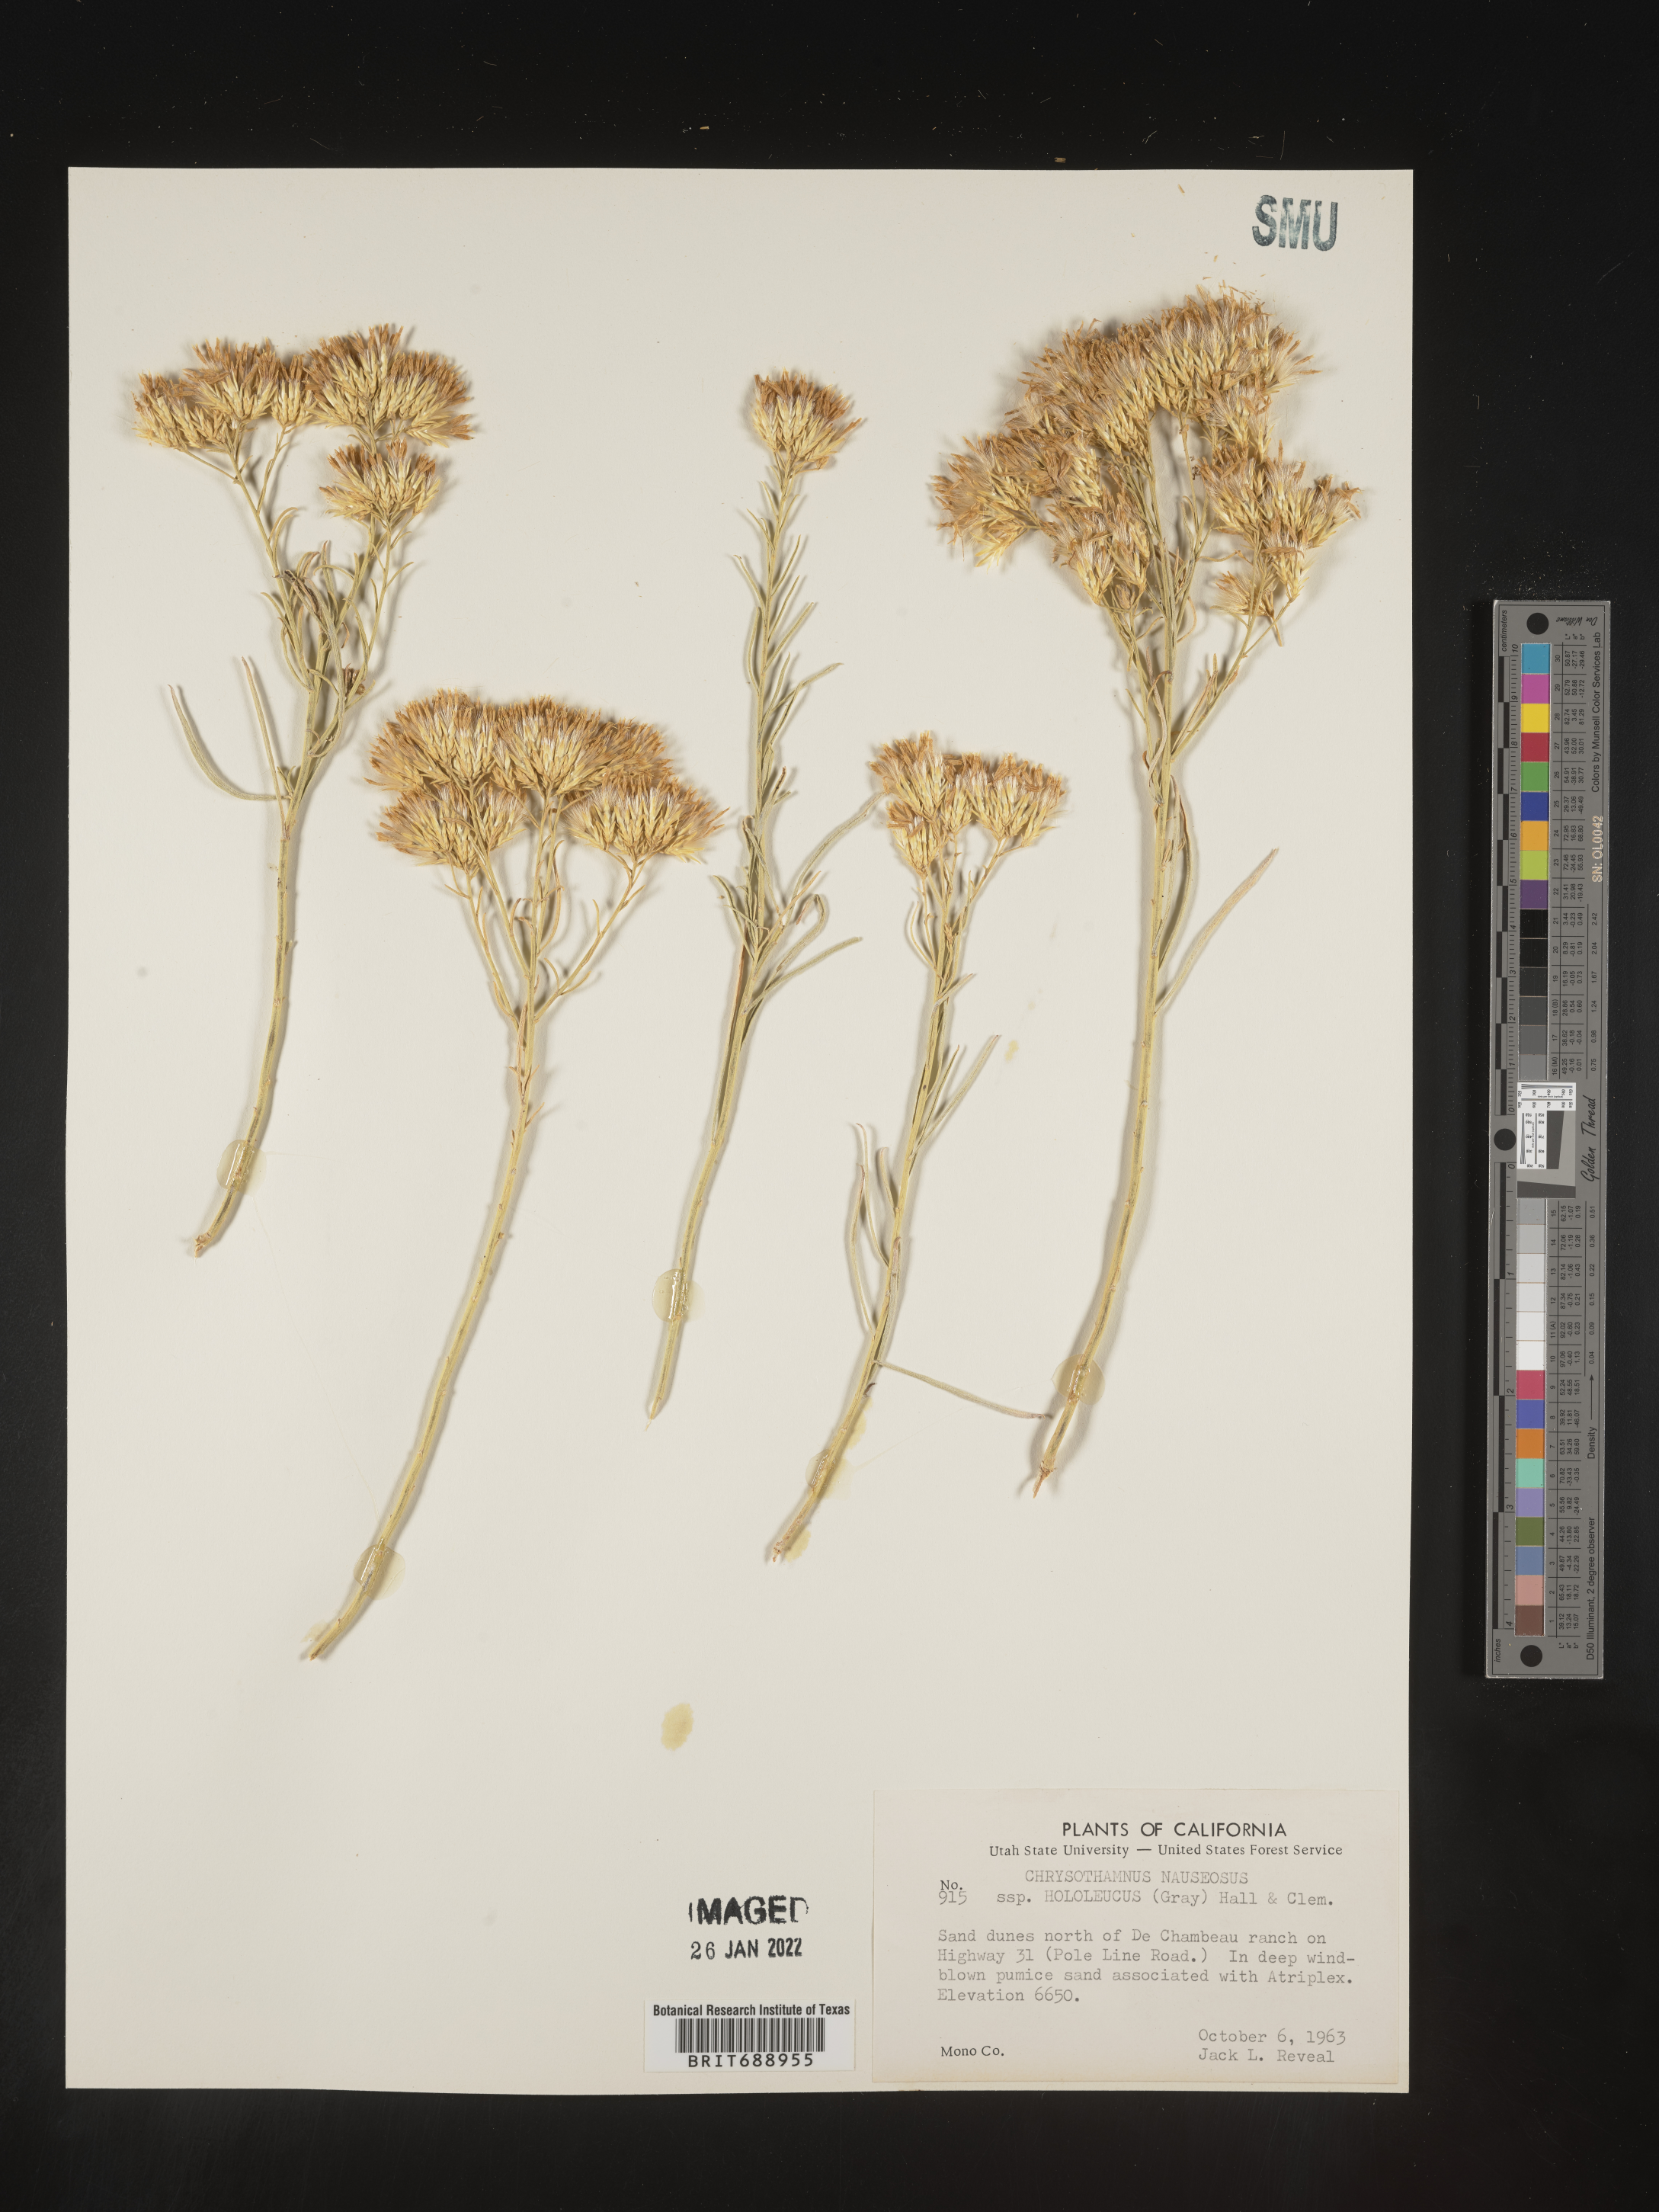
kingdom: Plantae
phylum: Tracheophyta
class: Magnoliopsida
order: Asterales
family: Asteraceae
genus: Ericameria
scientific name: Ericameria nauseosa
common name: Rubber rabbitbrush
